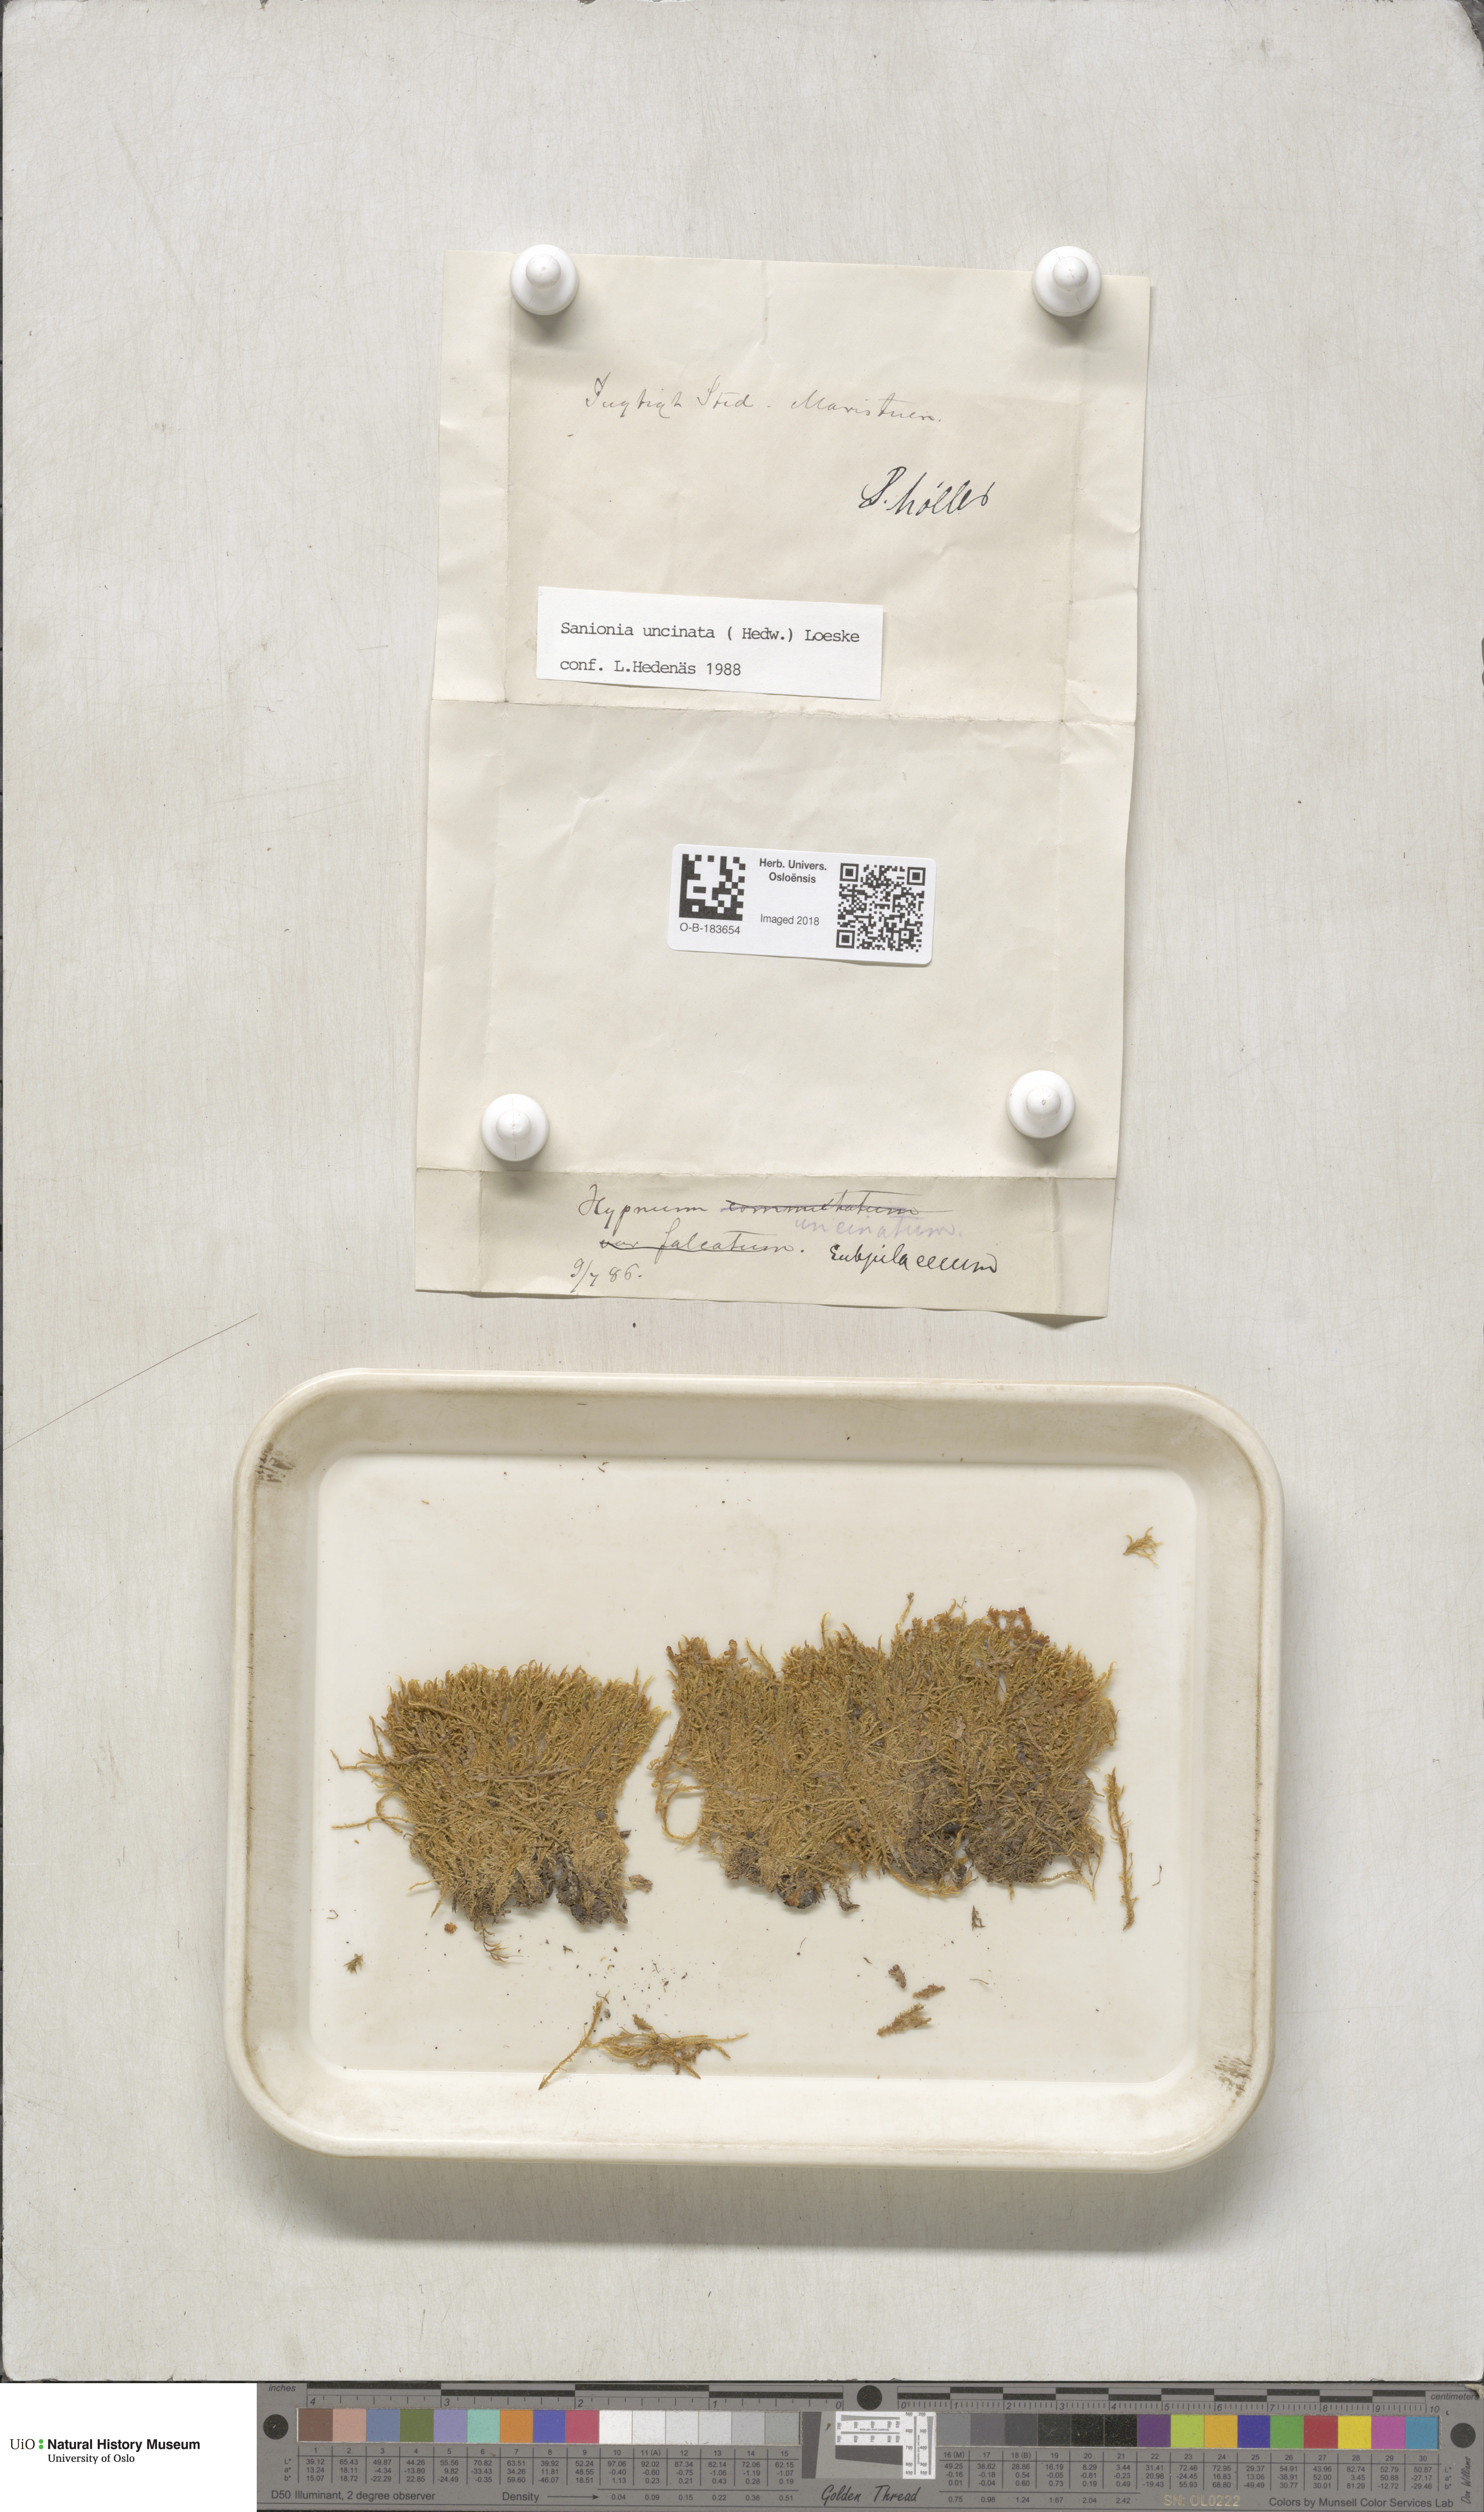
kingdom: Plantae
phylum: Bryophyta
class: Bryopsida
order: Hypnales
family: Scorpidiaceae
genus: Sanionia
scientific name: Sanionia uncinata
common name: Sickle moss
